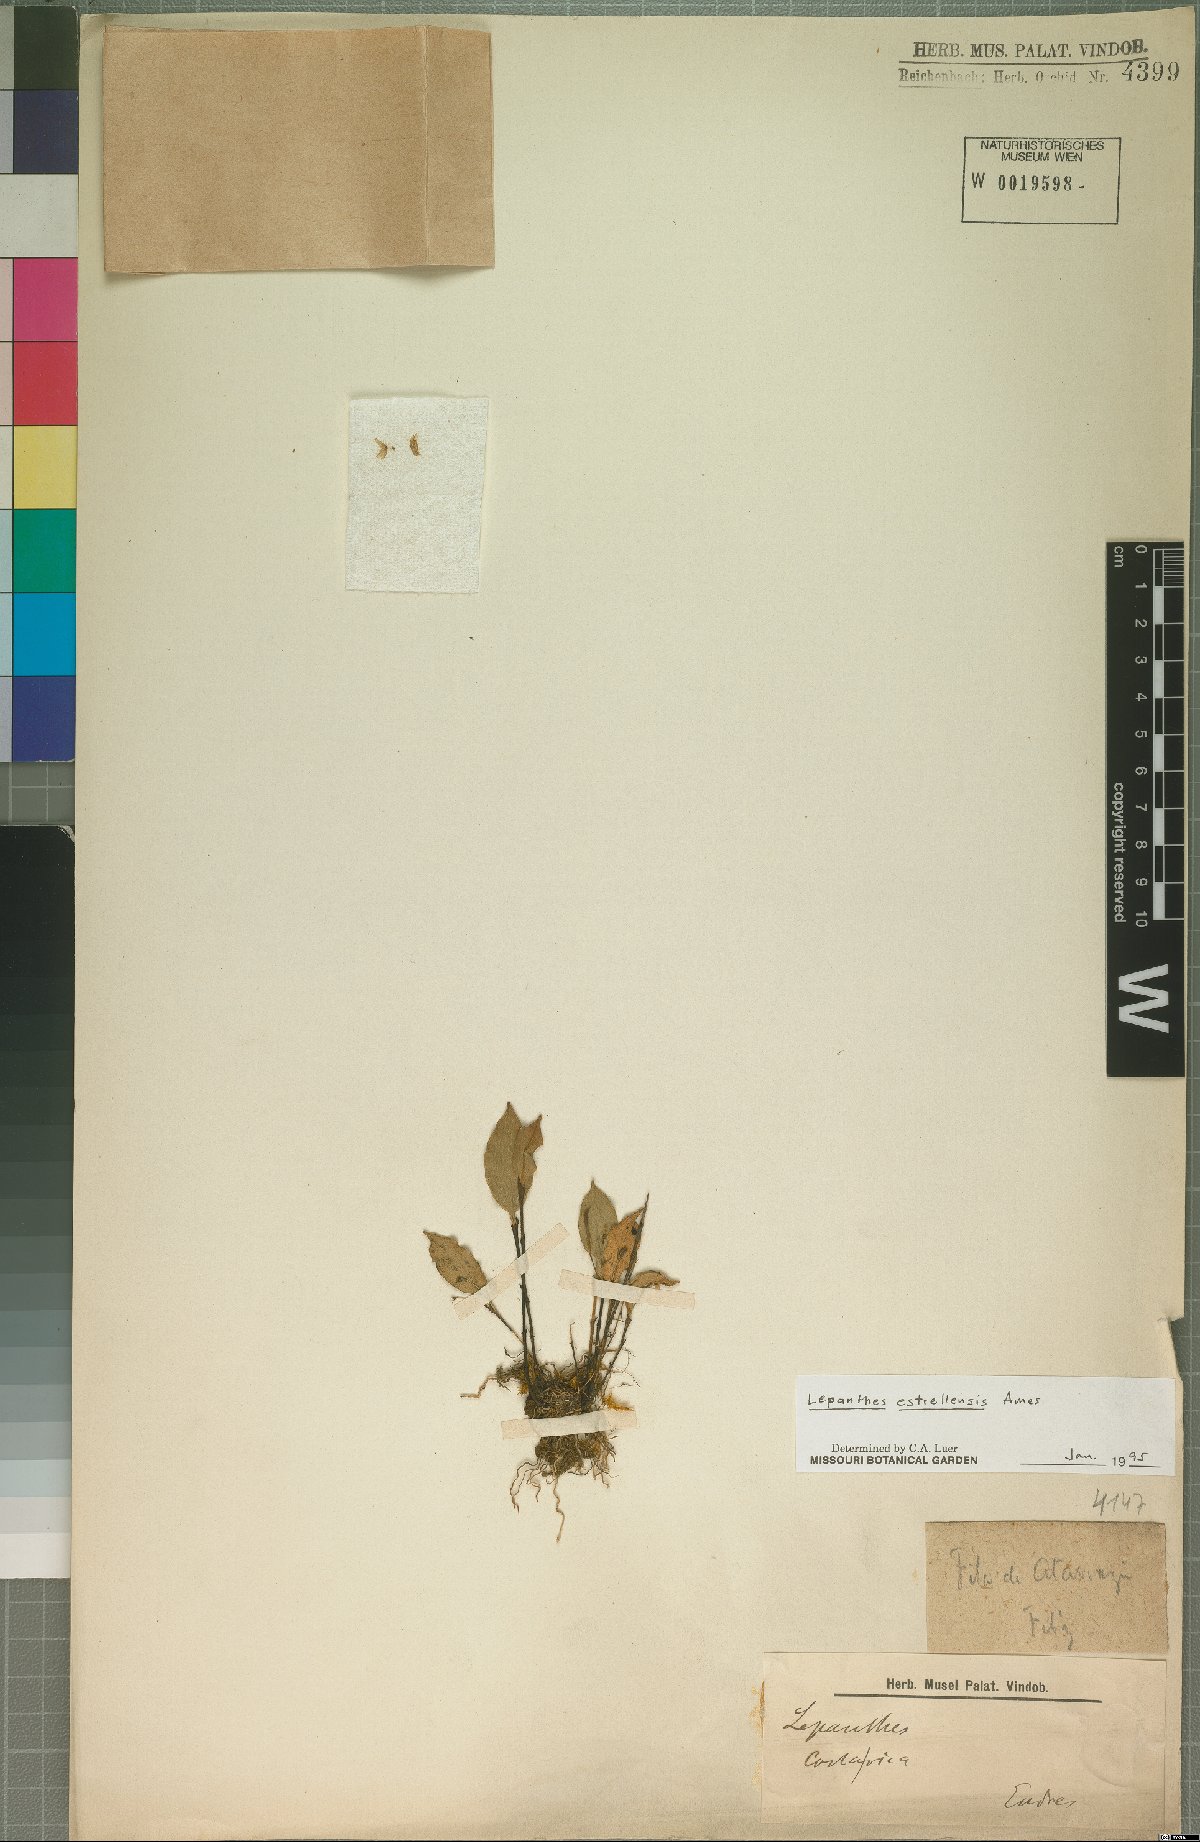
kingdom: Plantae
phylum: Tracheophyta
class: Liliopsida
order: Asparagales
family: Orchidaceae
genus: Lepanthes
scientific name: Lepanthes estrellensis
